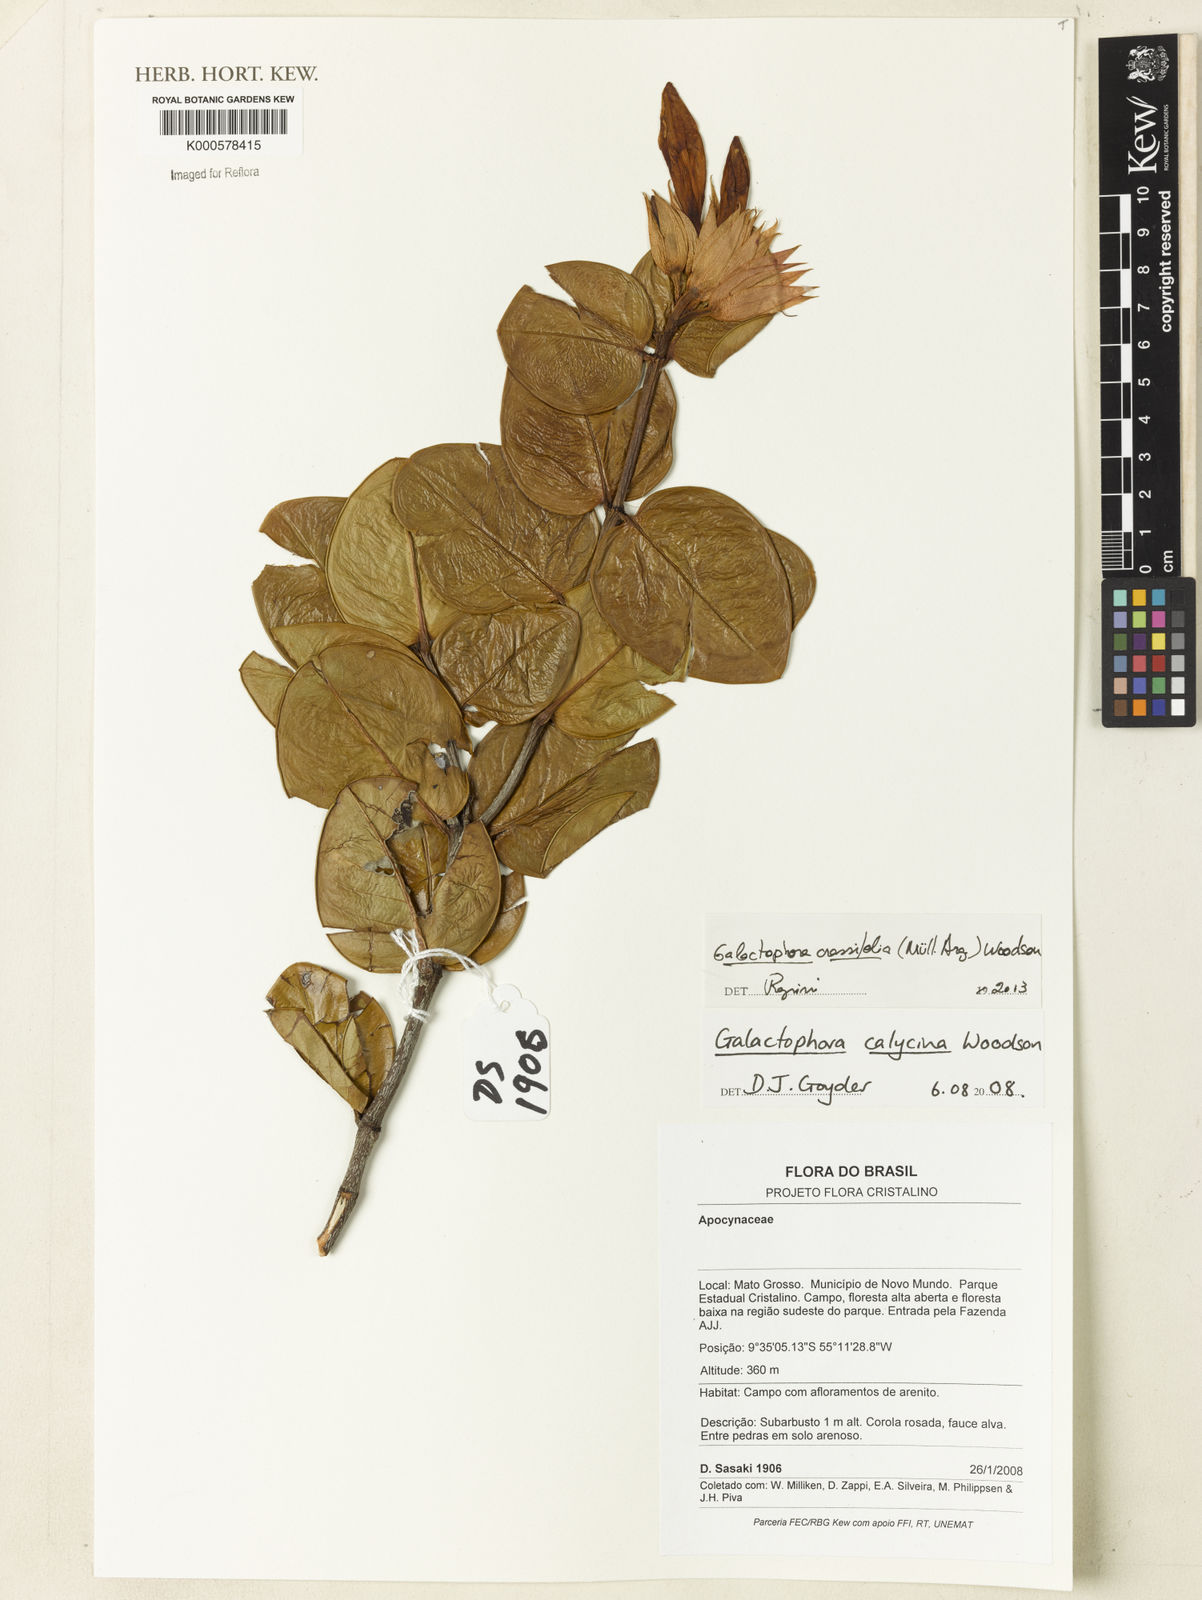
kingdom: Plantae
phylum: Tracheophyta
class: Magnoliopsida
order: Gentianales
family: Apocynaceae
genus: Galactophora
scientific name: Galactophora calycina
